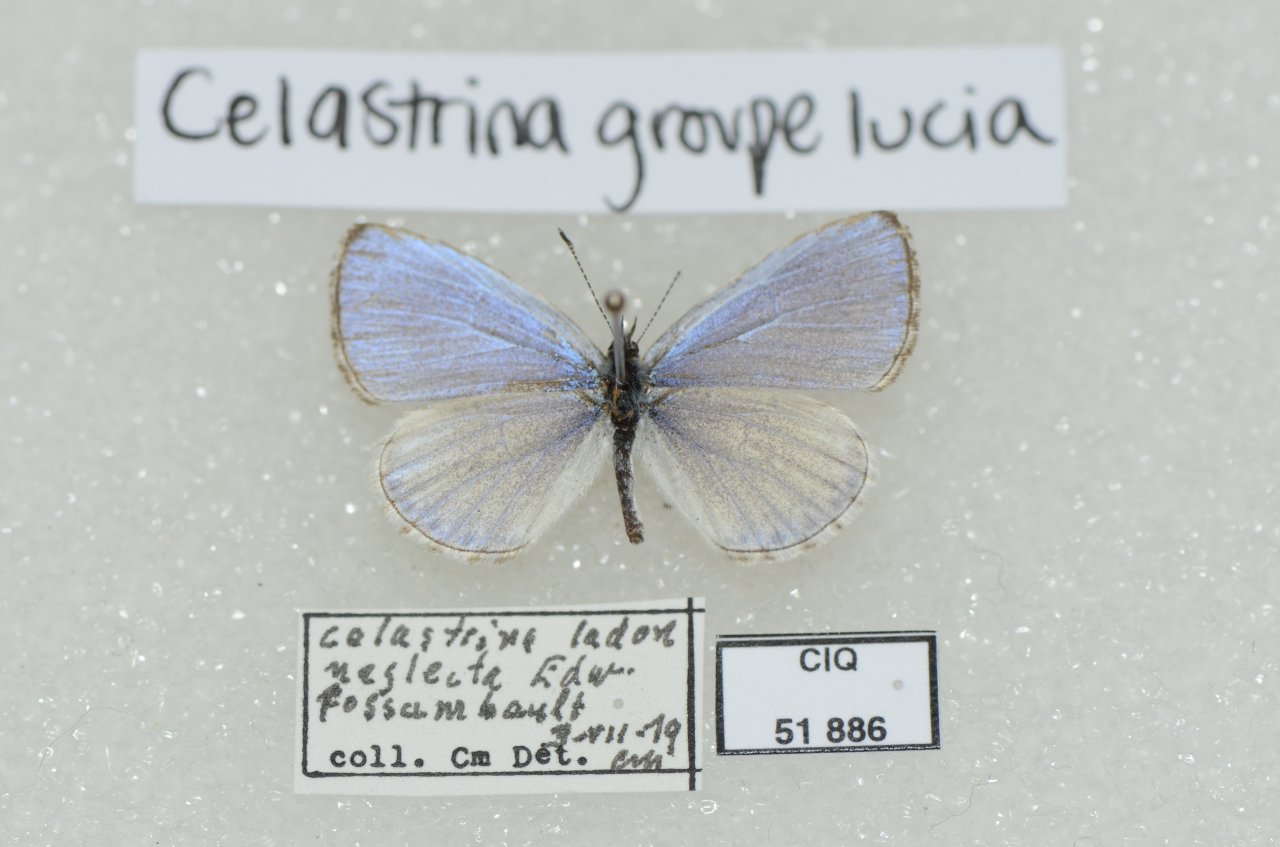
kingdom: Animalia
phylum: Arthropoda
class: Insecta
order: Lepidoptera
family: Lycaenidae
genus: Celastrina
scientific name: Celastrina lucia
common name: Northern Spring Azure
